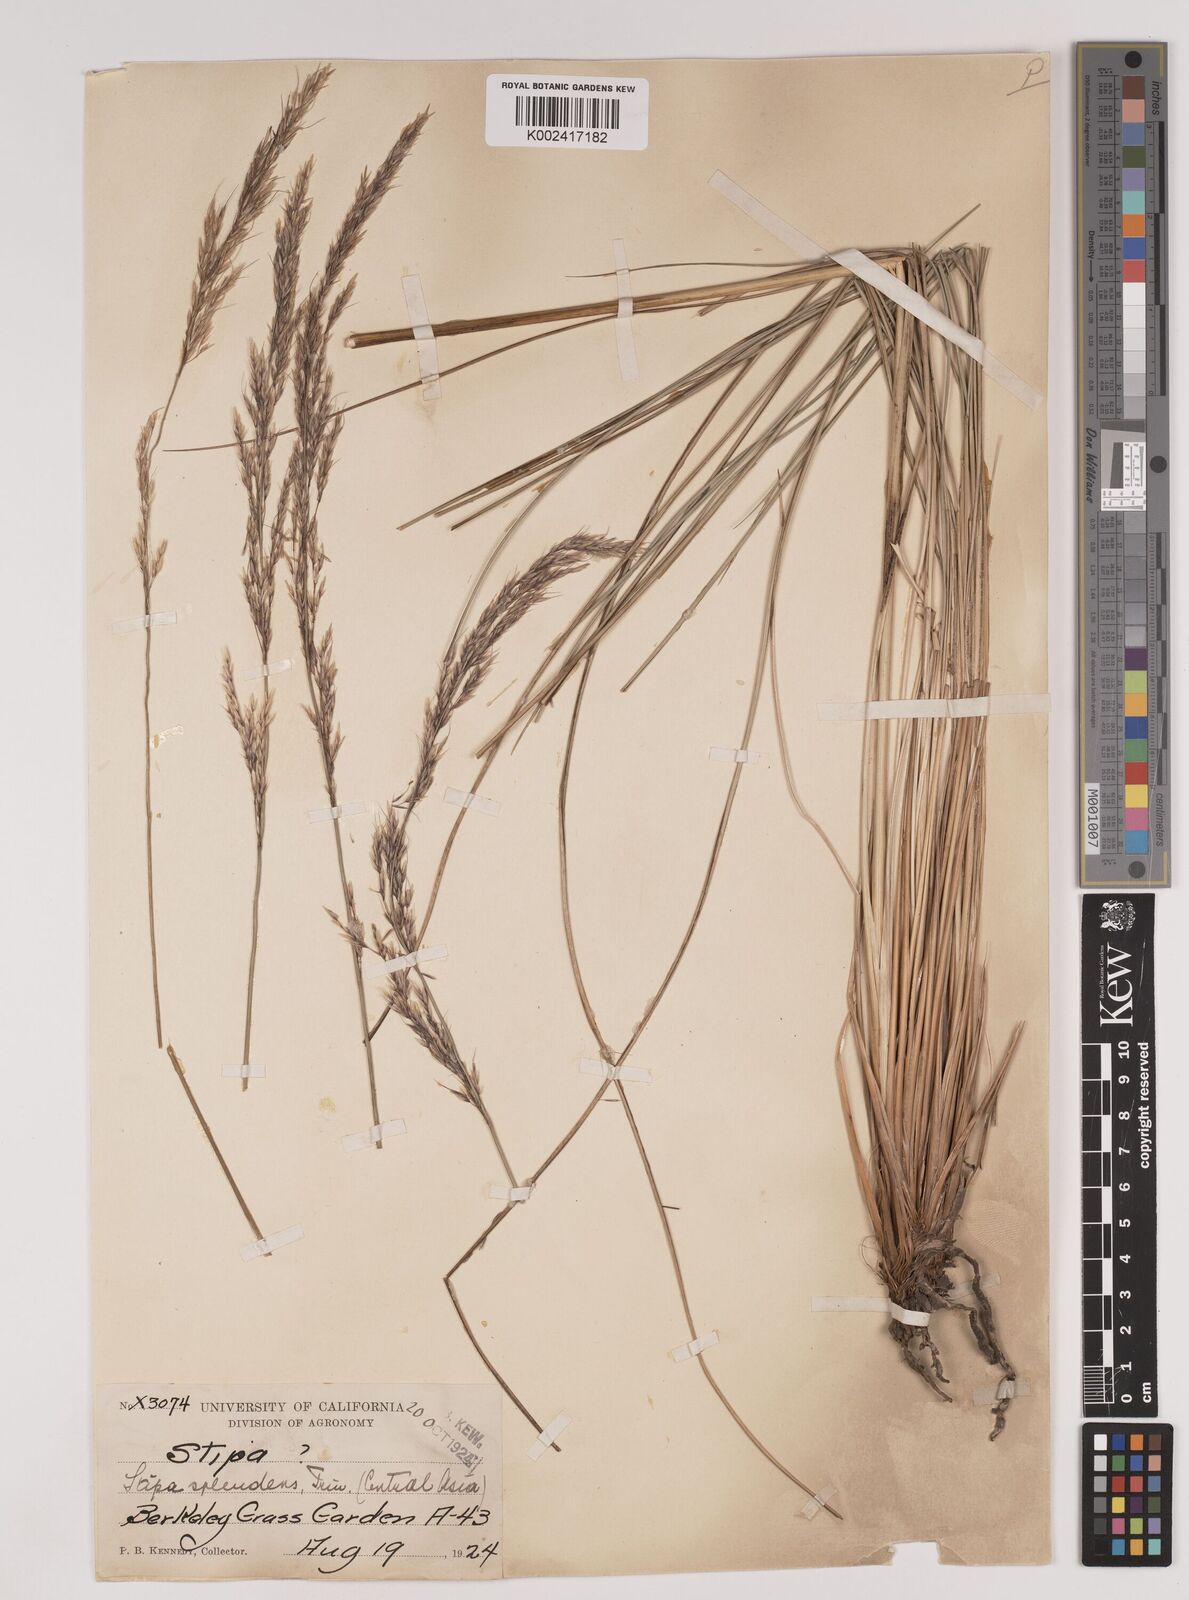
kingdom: Plantae
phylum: Tracheophyta
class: Liliopsida
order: Poales
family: Poaceae
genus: Neotrinia
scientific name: Neotrinia splendens
